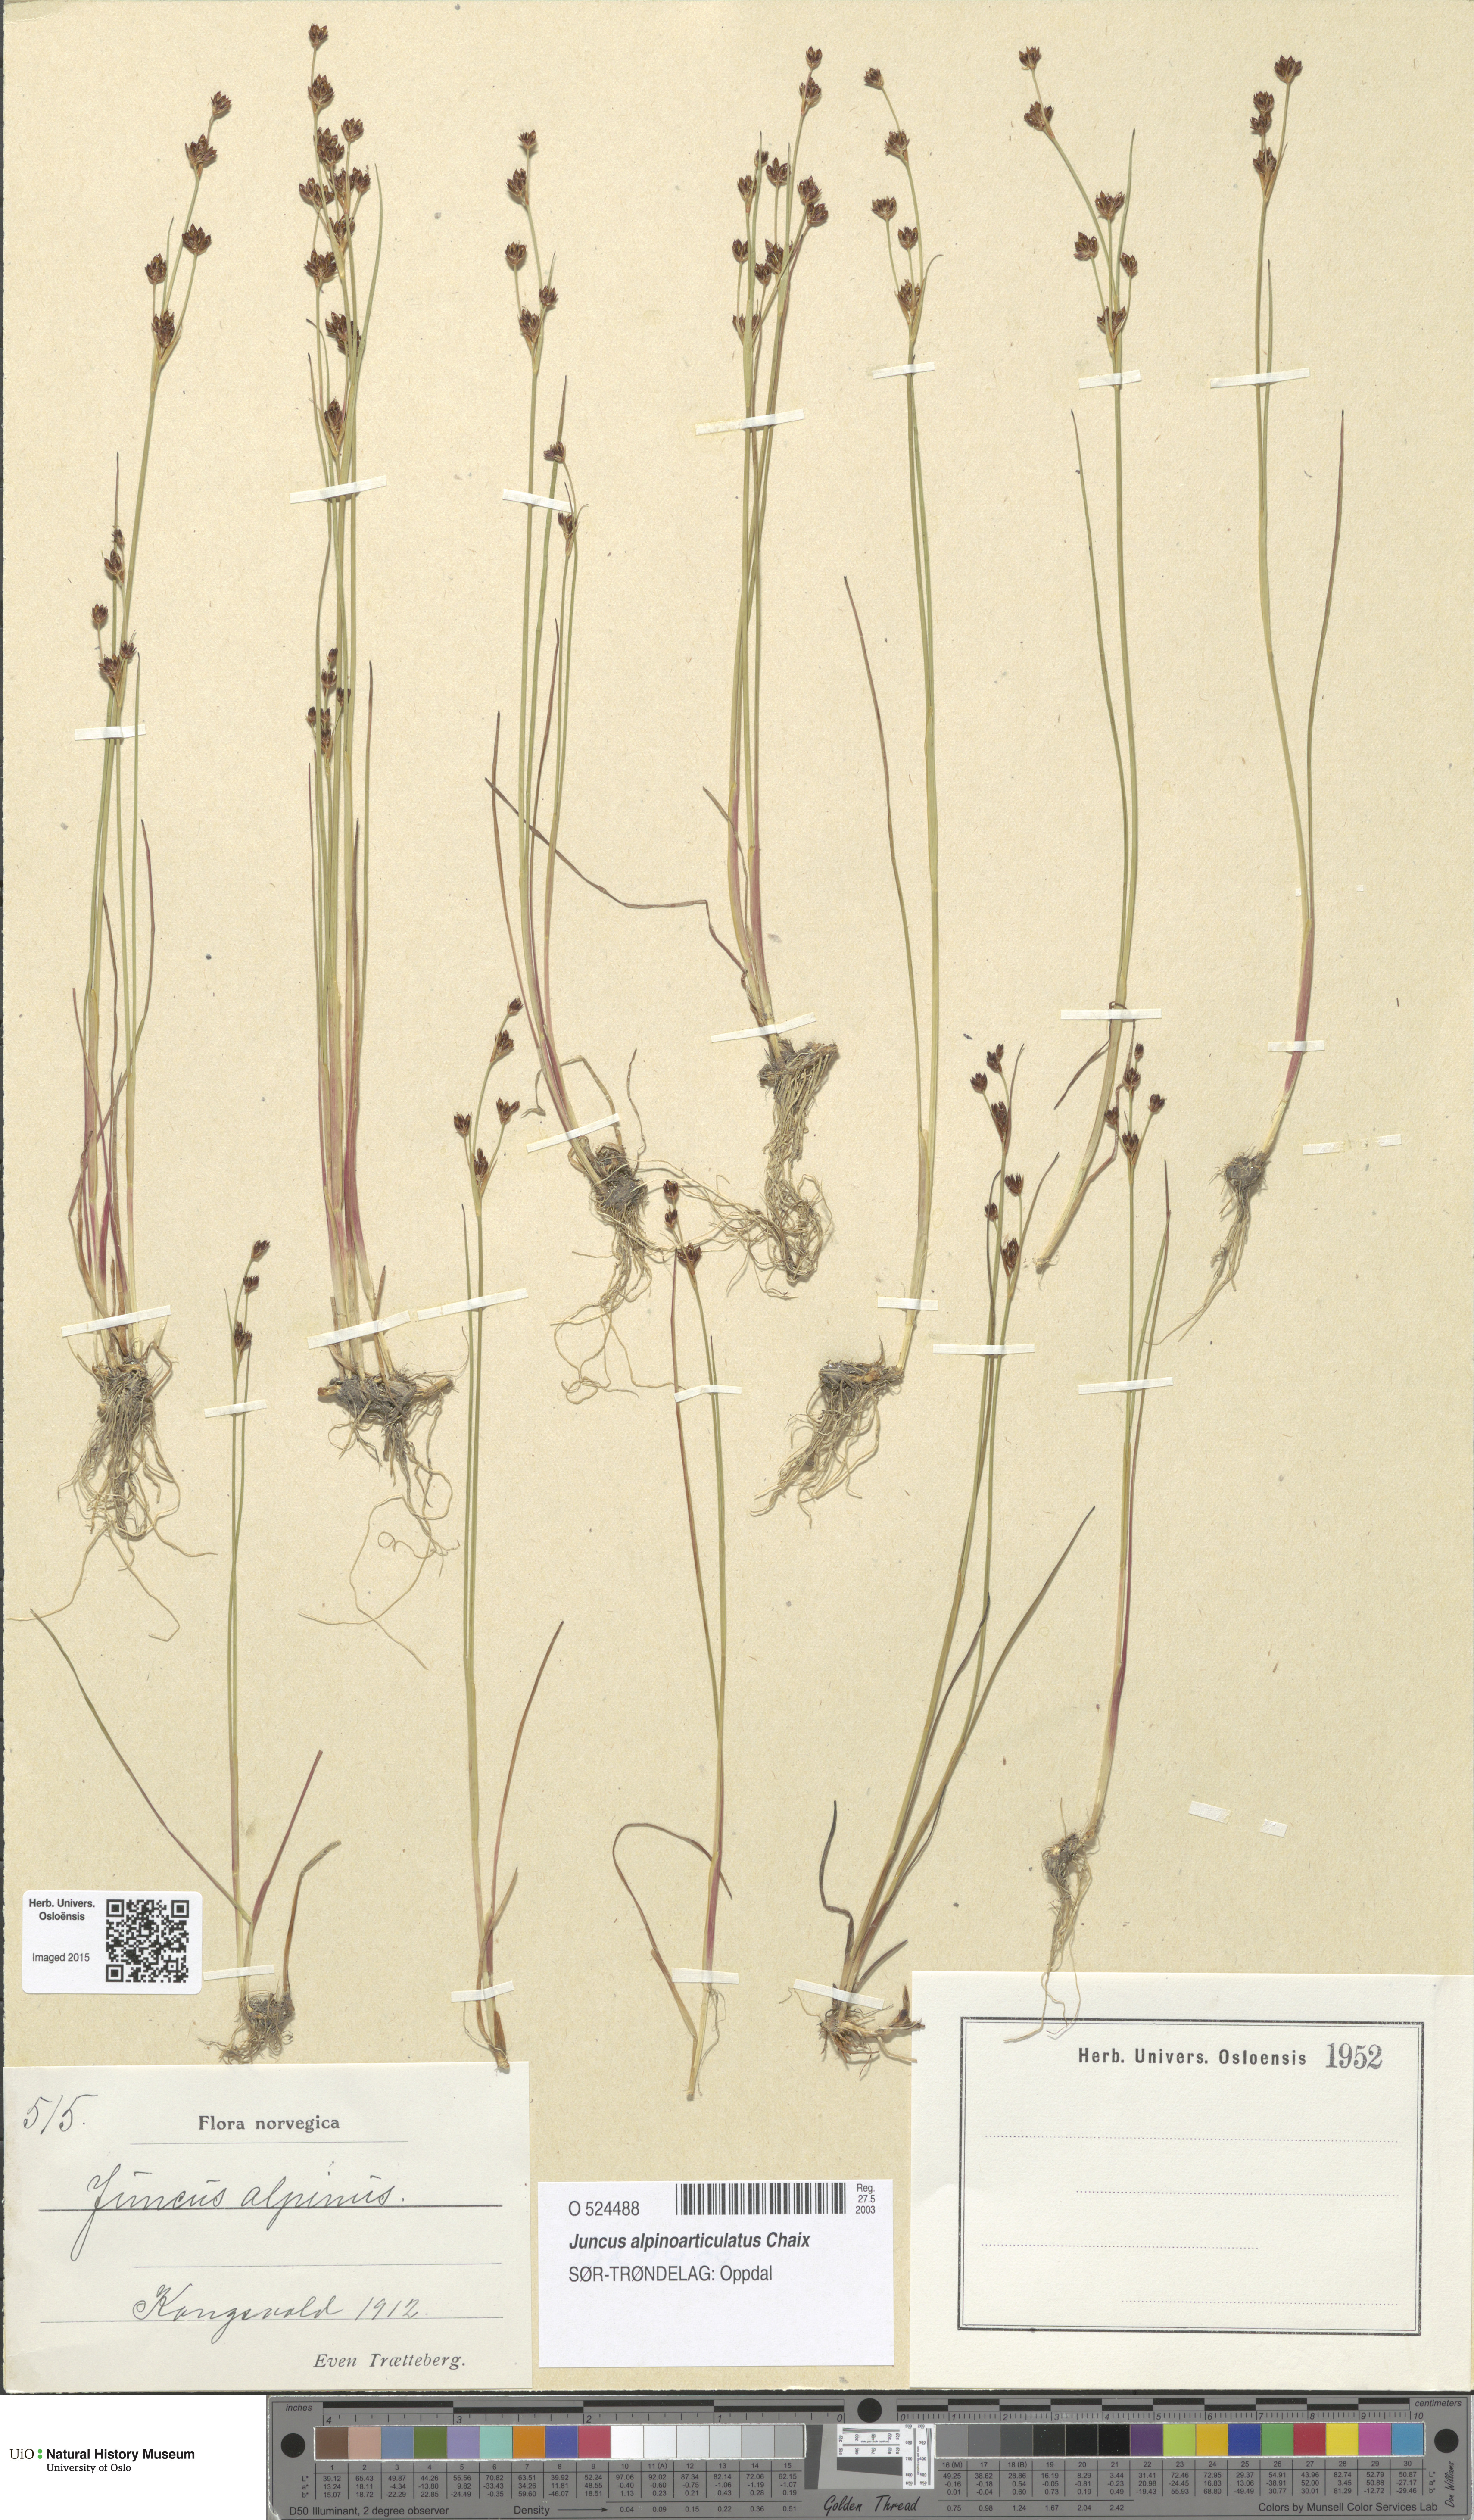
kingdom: Plantae
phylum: Tracheophyta
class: Liliopsida
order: Poales
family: Juncaceae
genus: Juncus
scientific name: Juncus alpinoarticulatus
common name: Alpine rush
